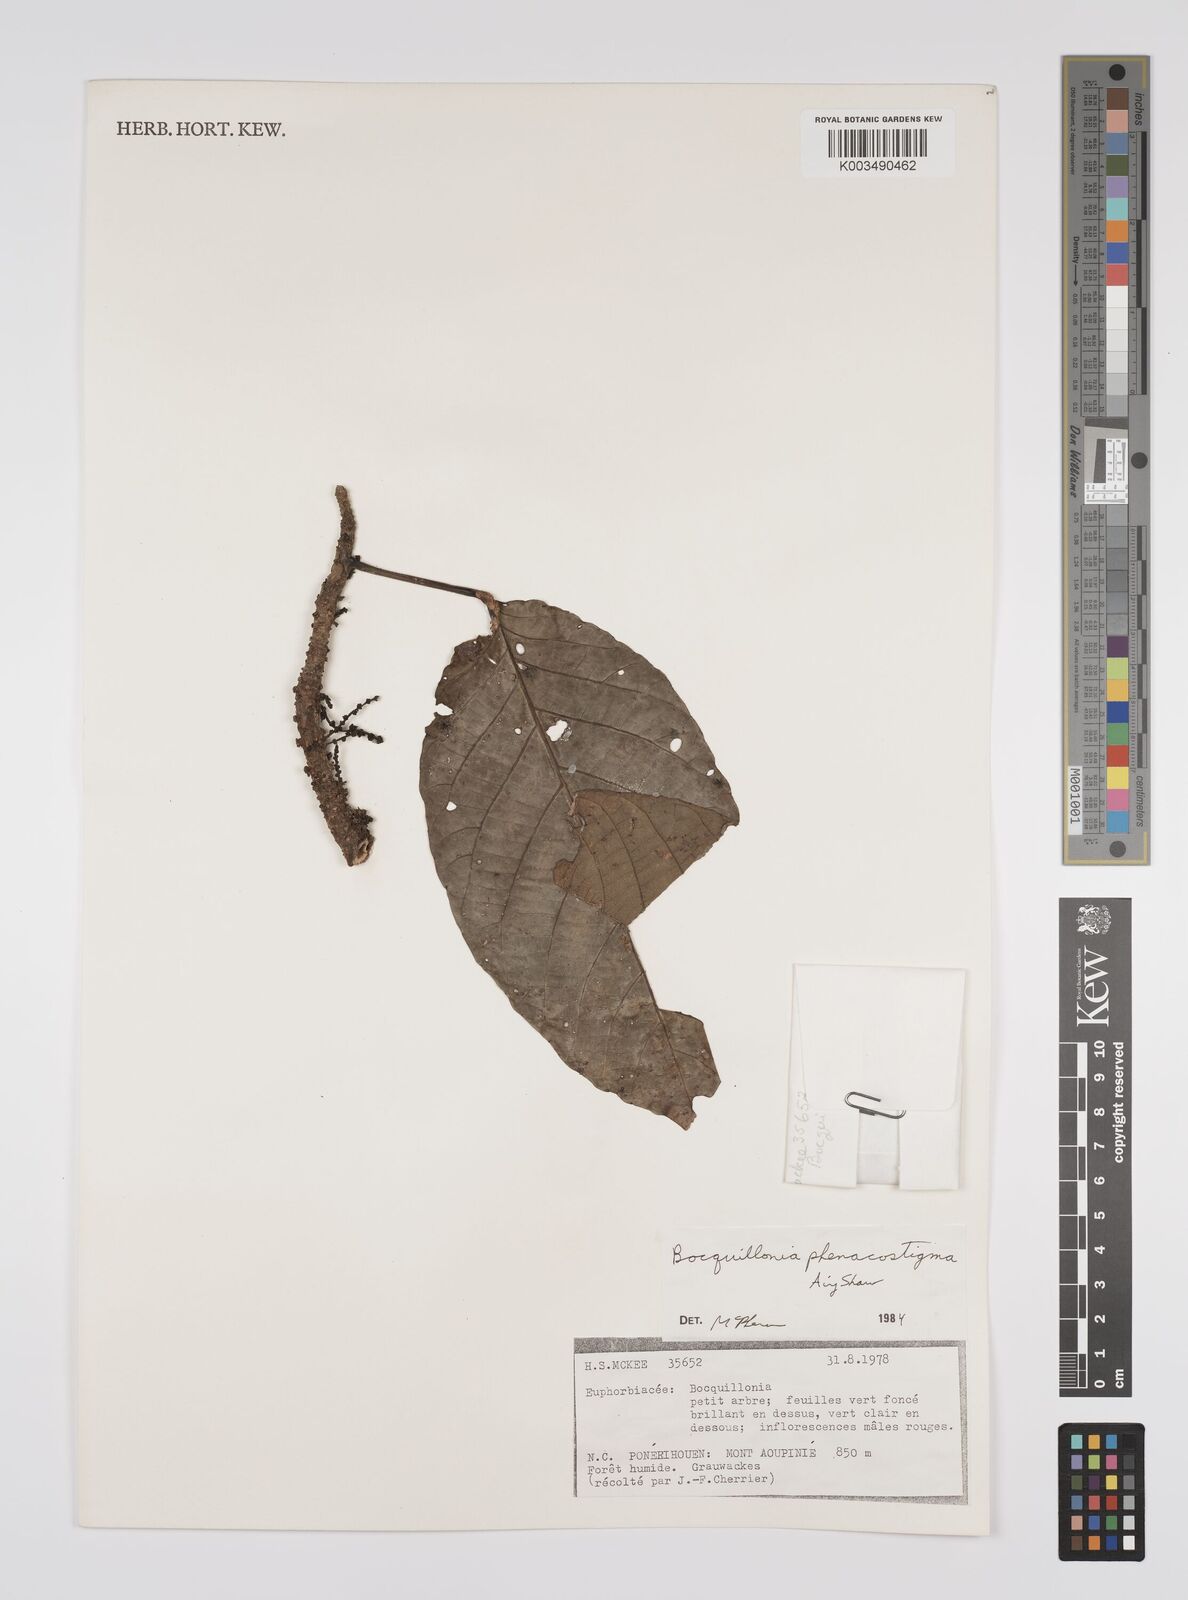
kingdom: Plantae
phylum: Tracheophyta
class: Magnoliopsida
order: Malpighiales
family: Euphorbiaceae
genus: Bocquillonia
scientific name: Bocquillonia phenacostigma
